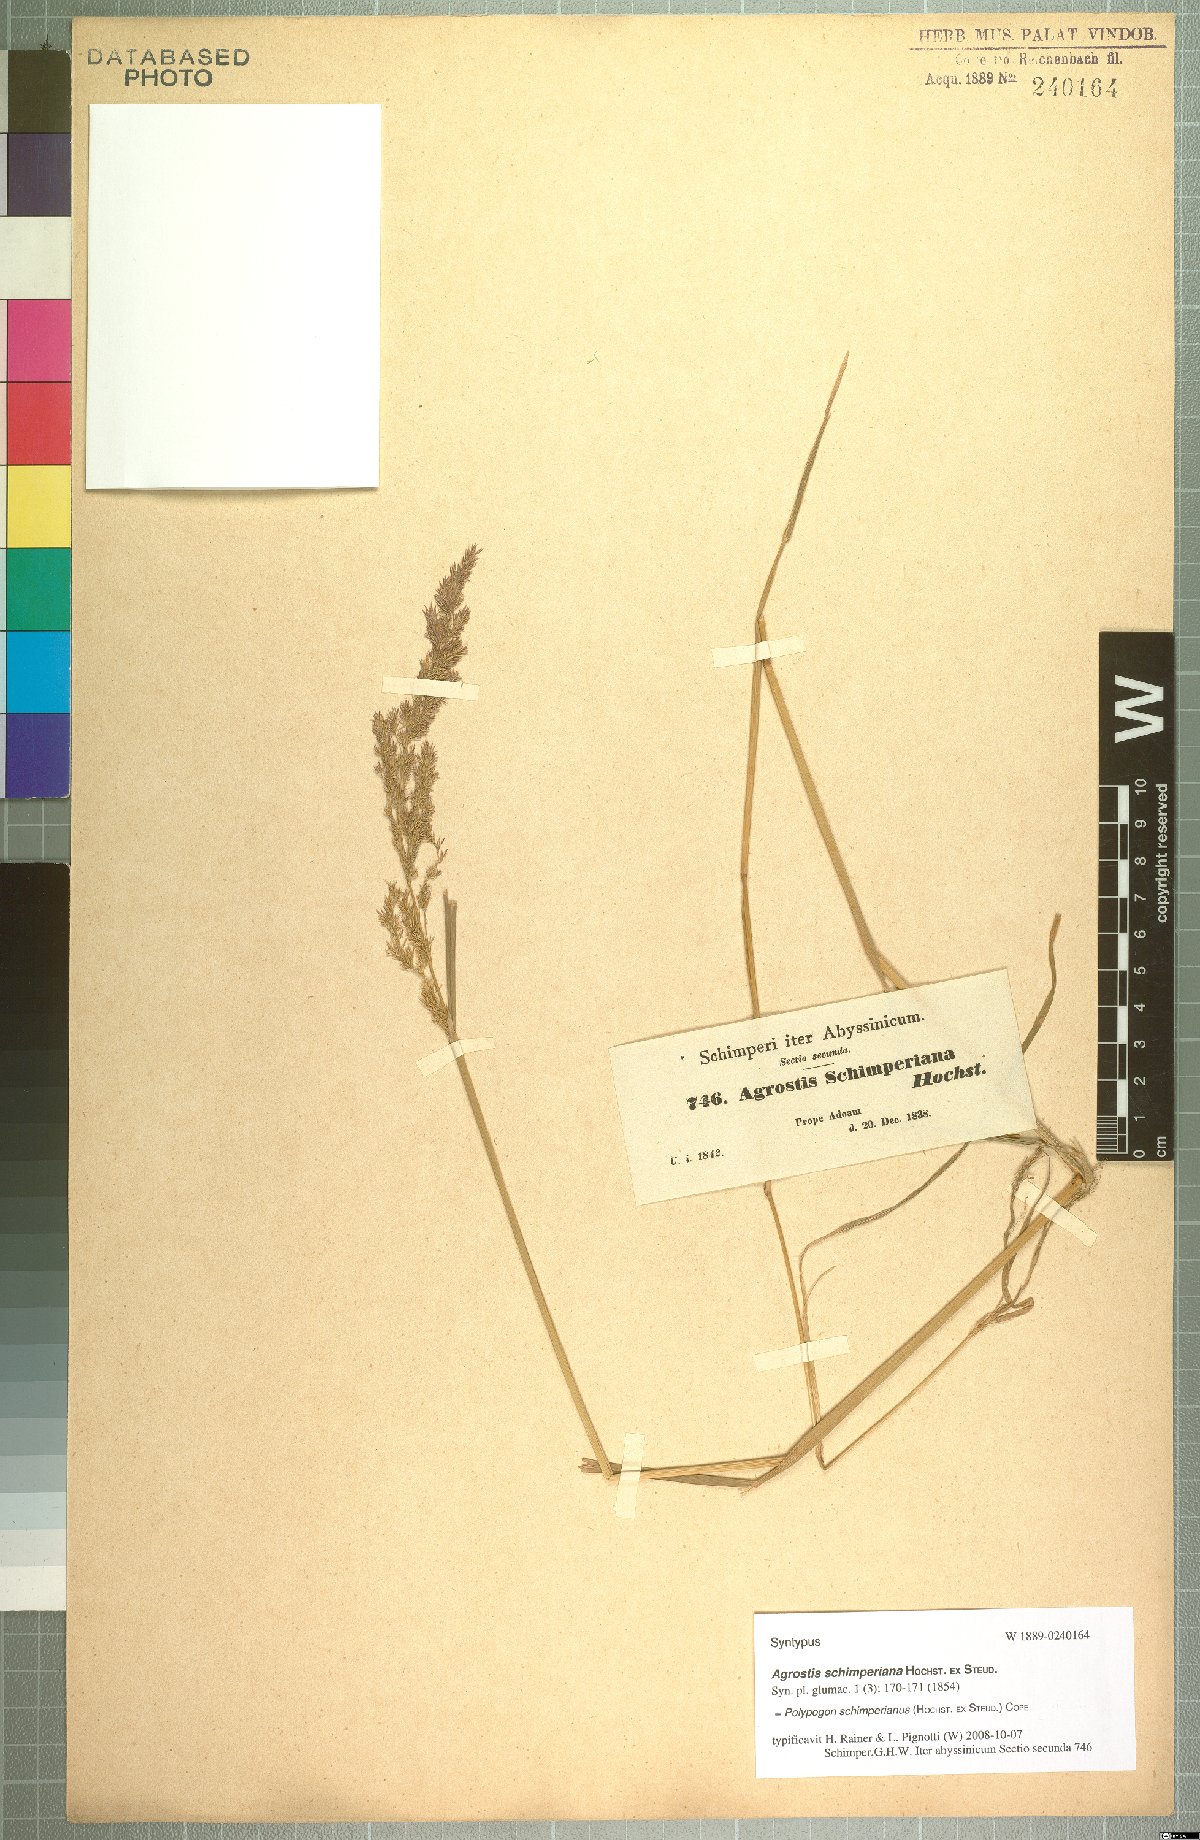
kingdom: Plantae
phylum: Tracheophyta
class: Liliopsida
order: Poales
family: Poaceae
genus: Polypogon
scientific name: Polypogon schimperianus
